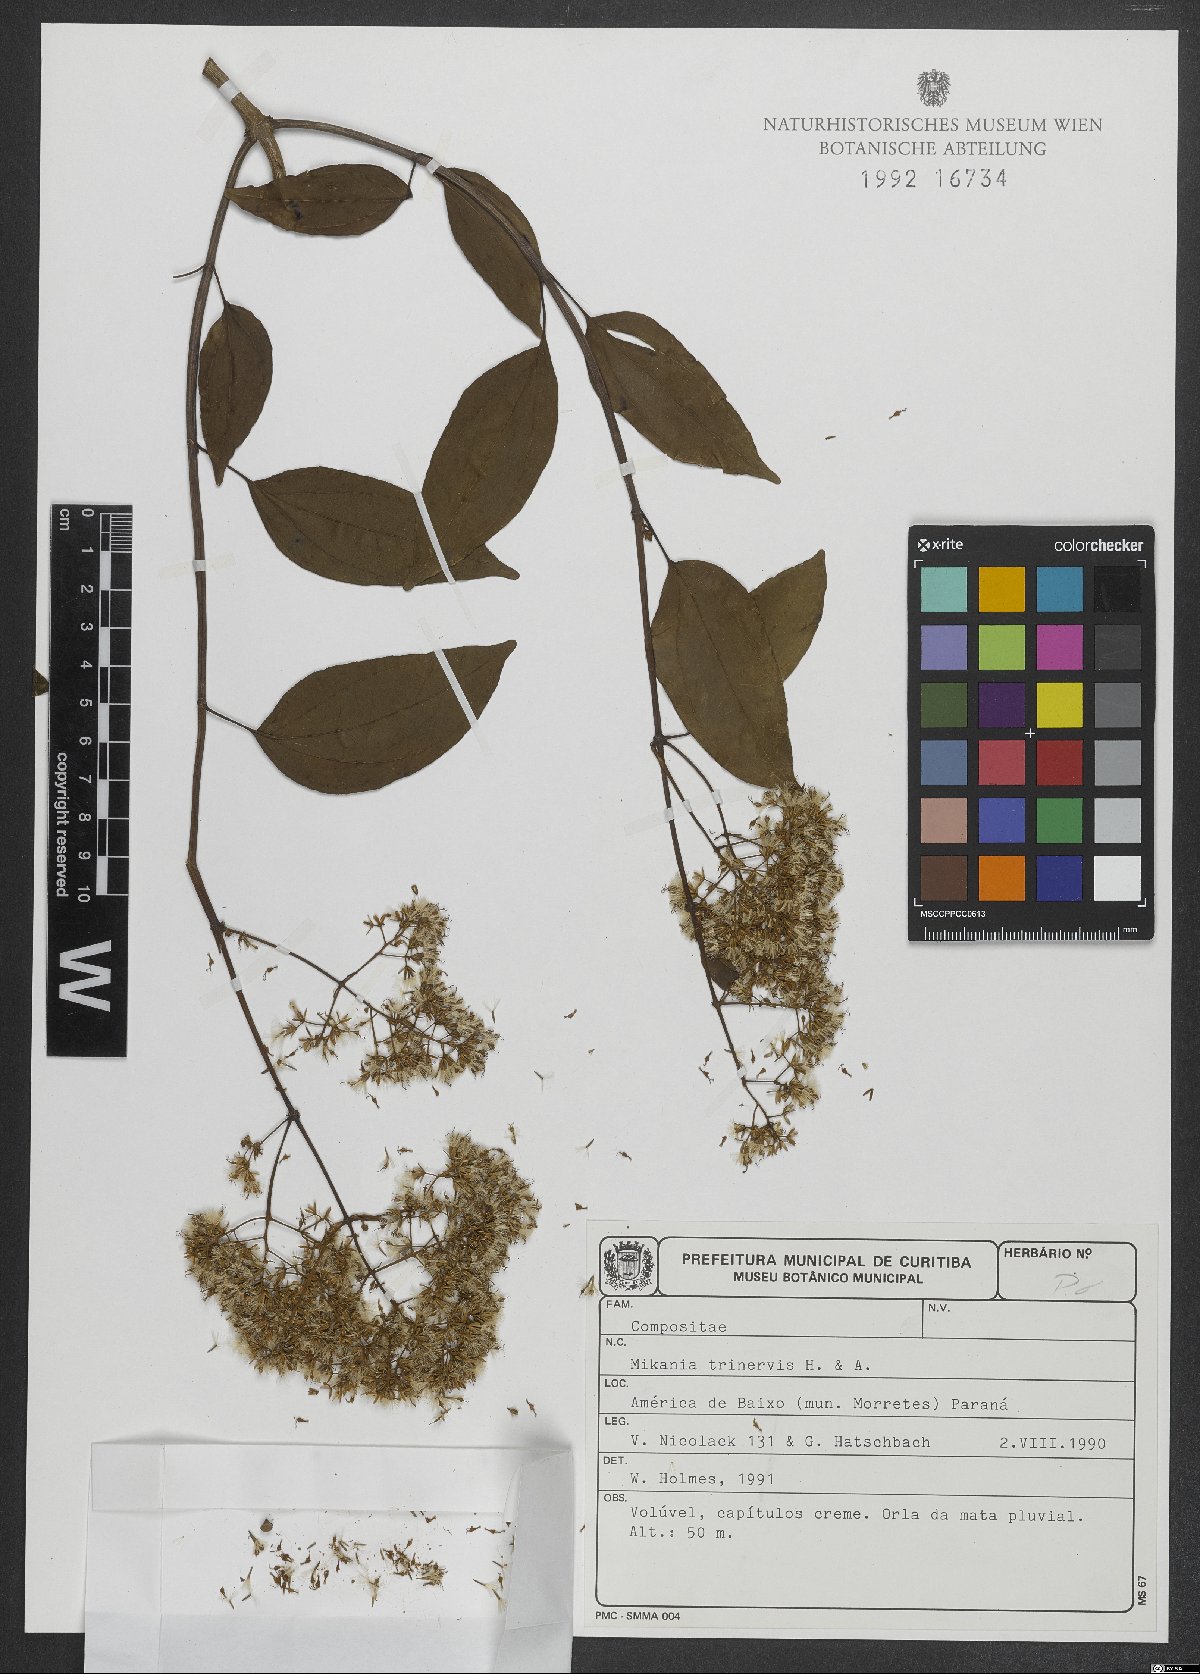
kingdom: Plantae
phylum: Tracheophyta
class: Magnoliopsida
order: Asterales
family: Asteraceae
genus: Mikania
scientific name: Mikania trinervis
